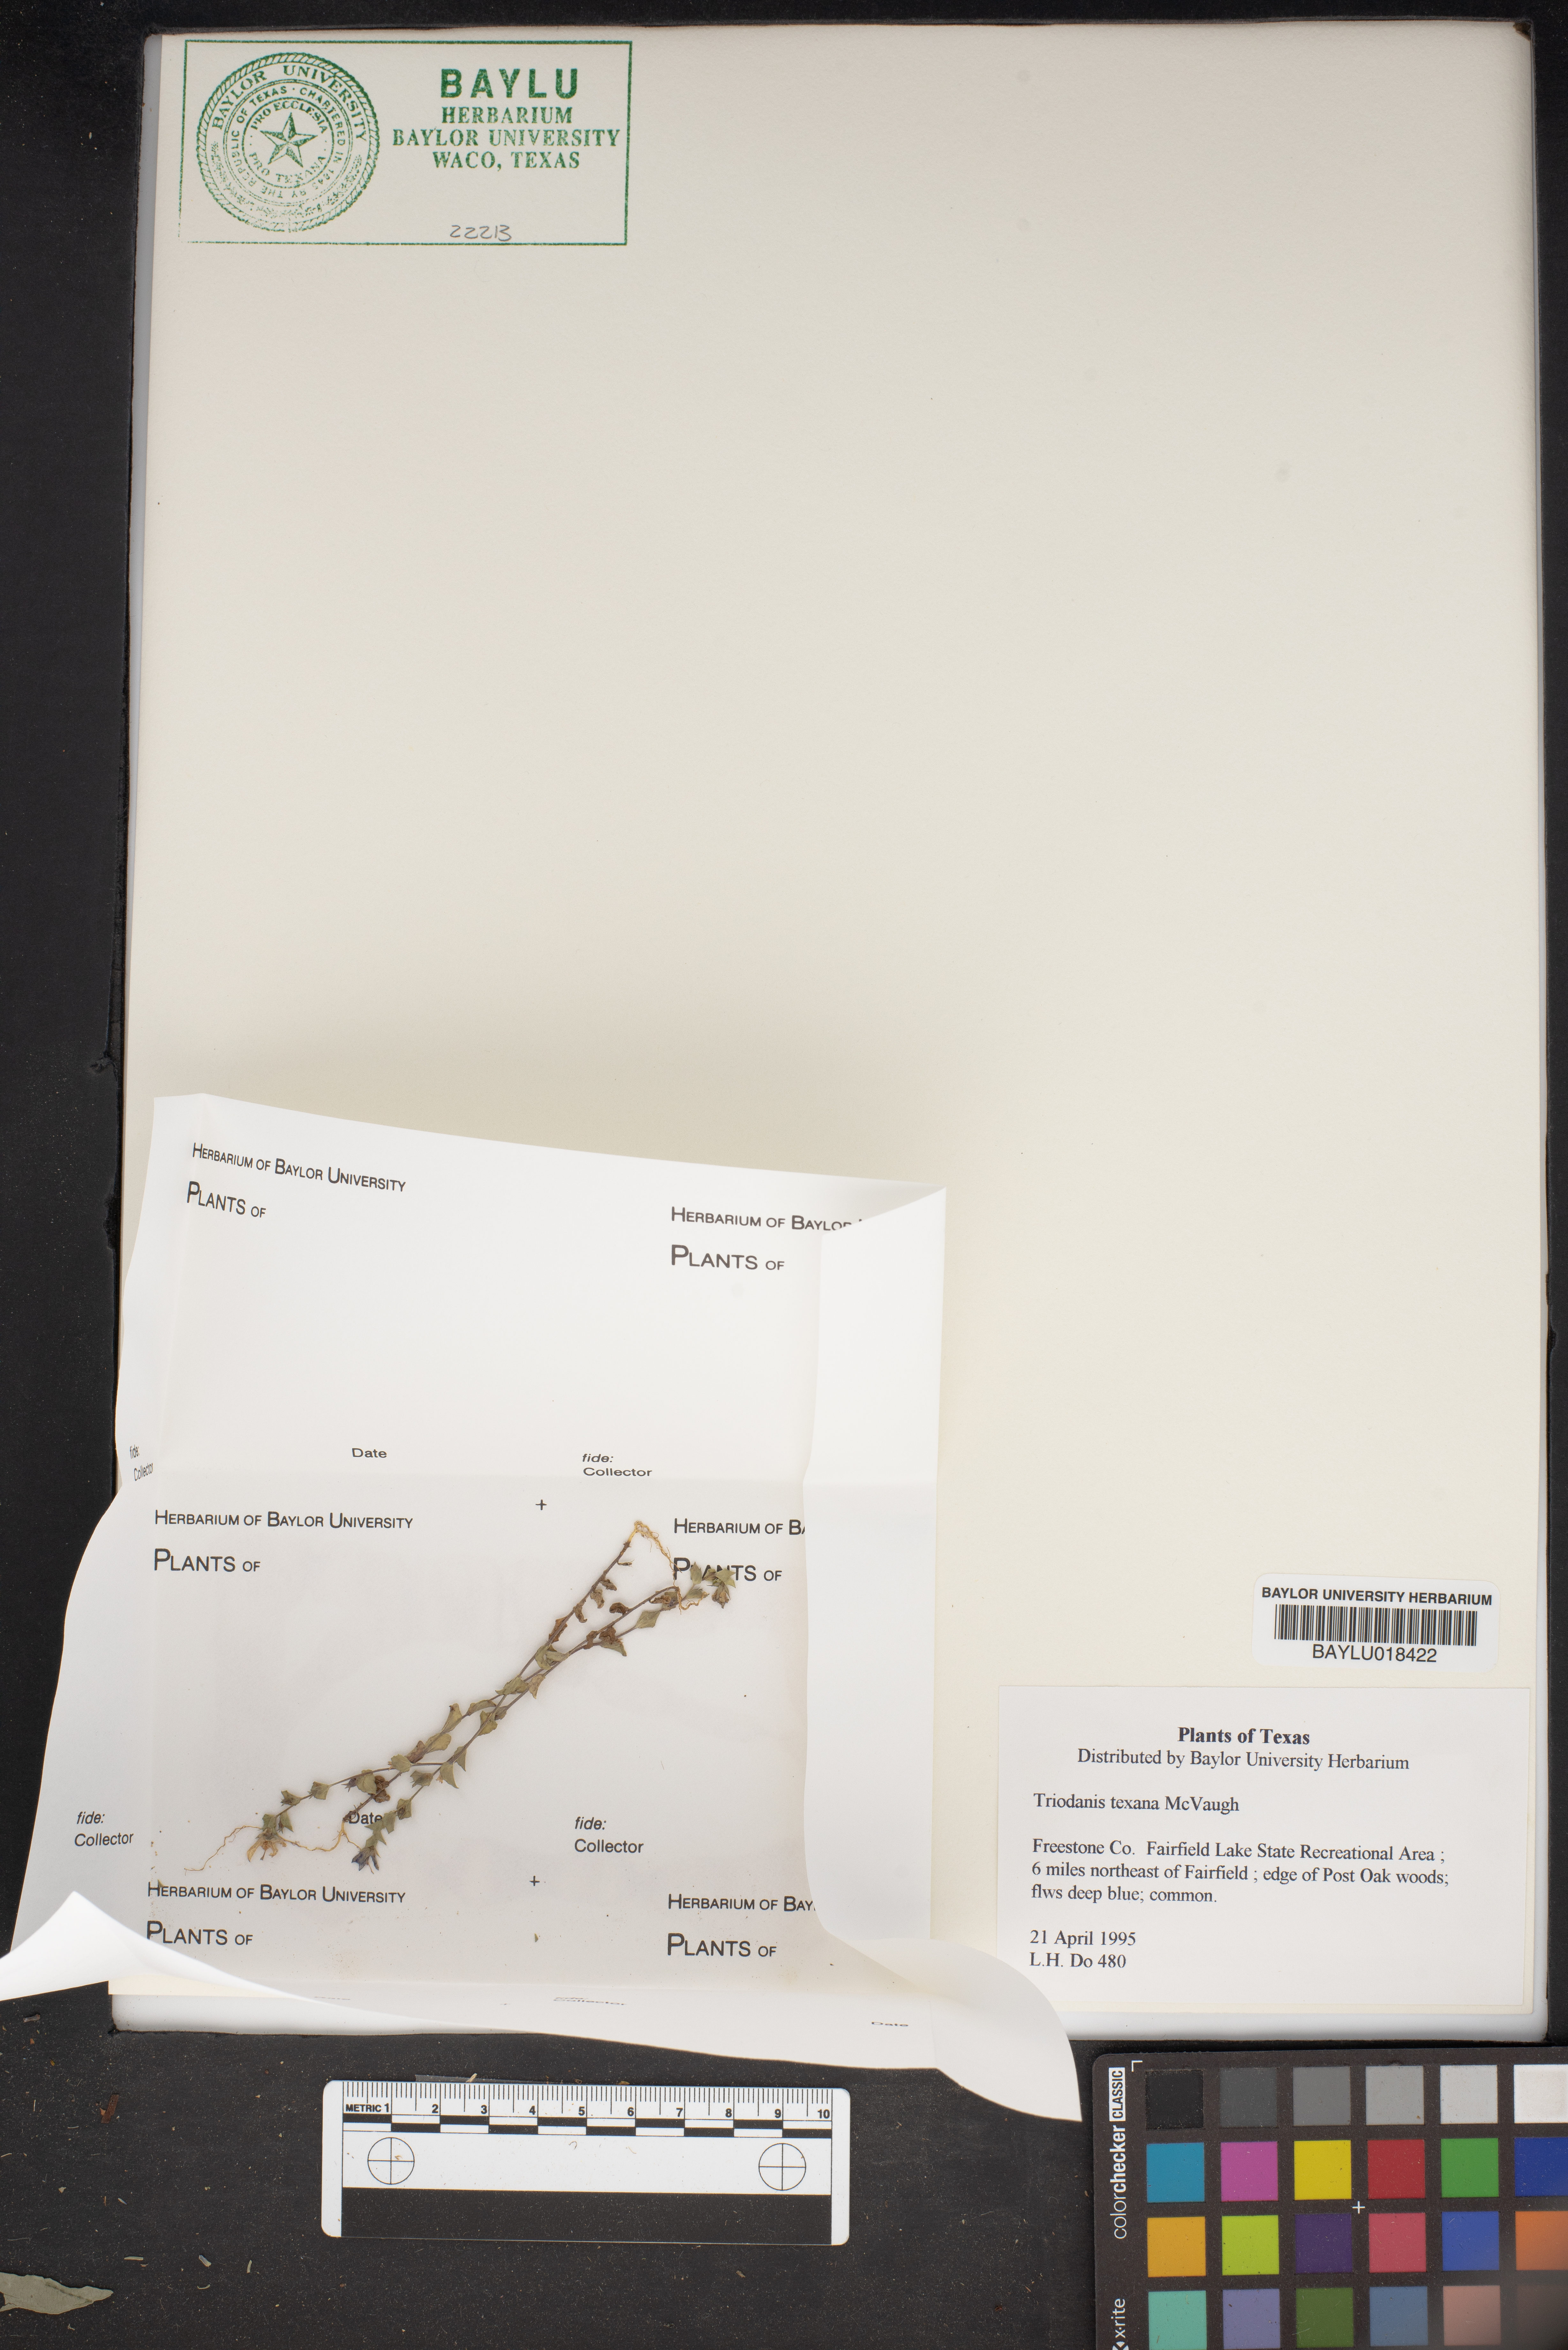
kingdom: Plantae
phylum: Tracheophyta
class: Magnoliopsida
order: Asterales
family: Campanulaceae
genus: Triodanis
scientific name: Triodanis texana
